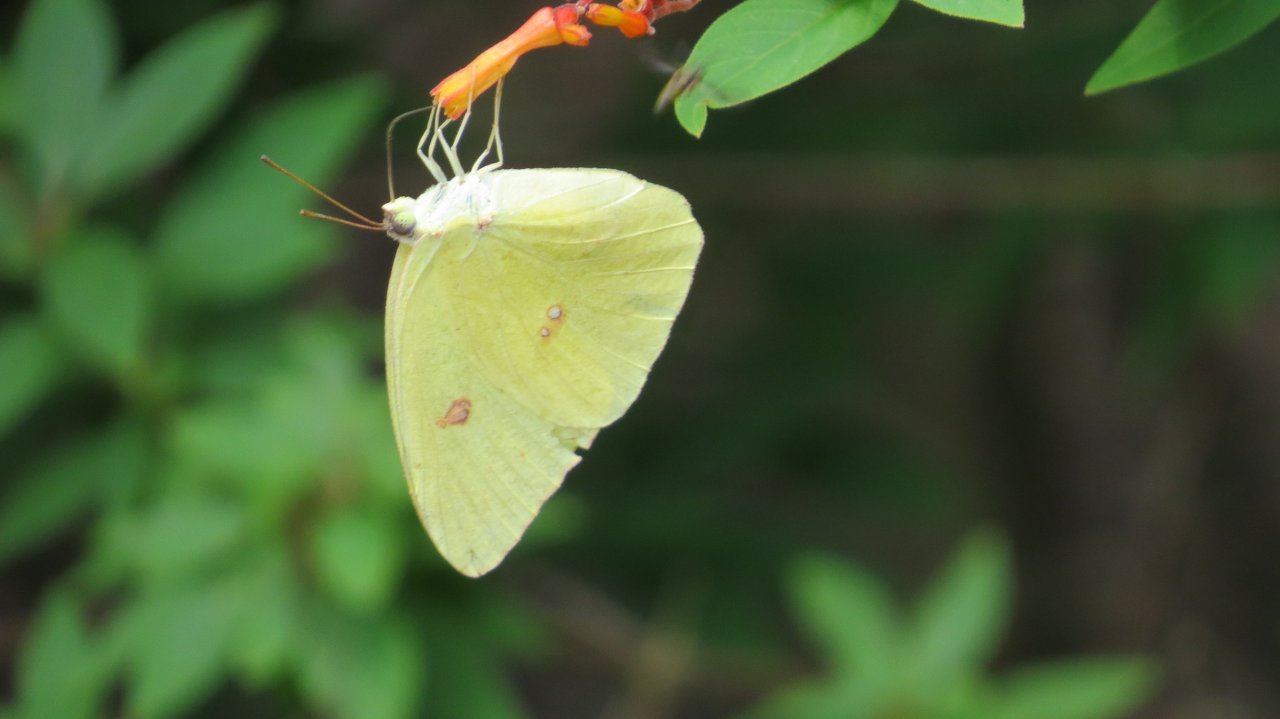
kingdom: Animalia
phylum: Arthropoda
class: Insecta
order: Lepidoptera
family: Pieridae
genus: Phoebis
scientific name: Phoebis sennae
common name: Cloudless Sulphur
